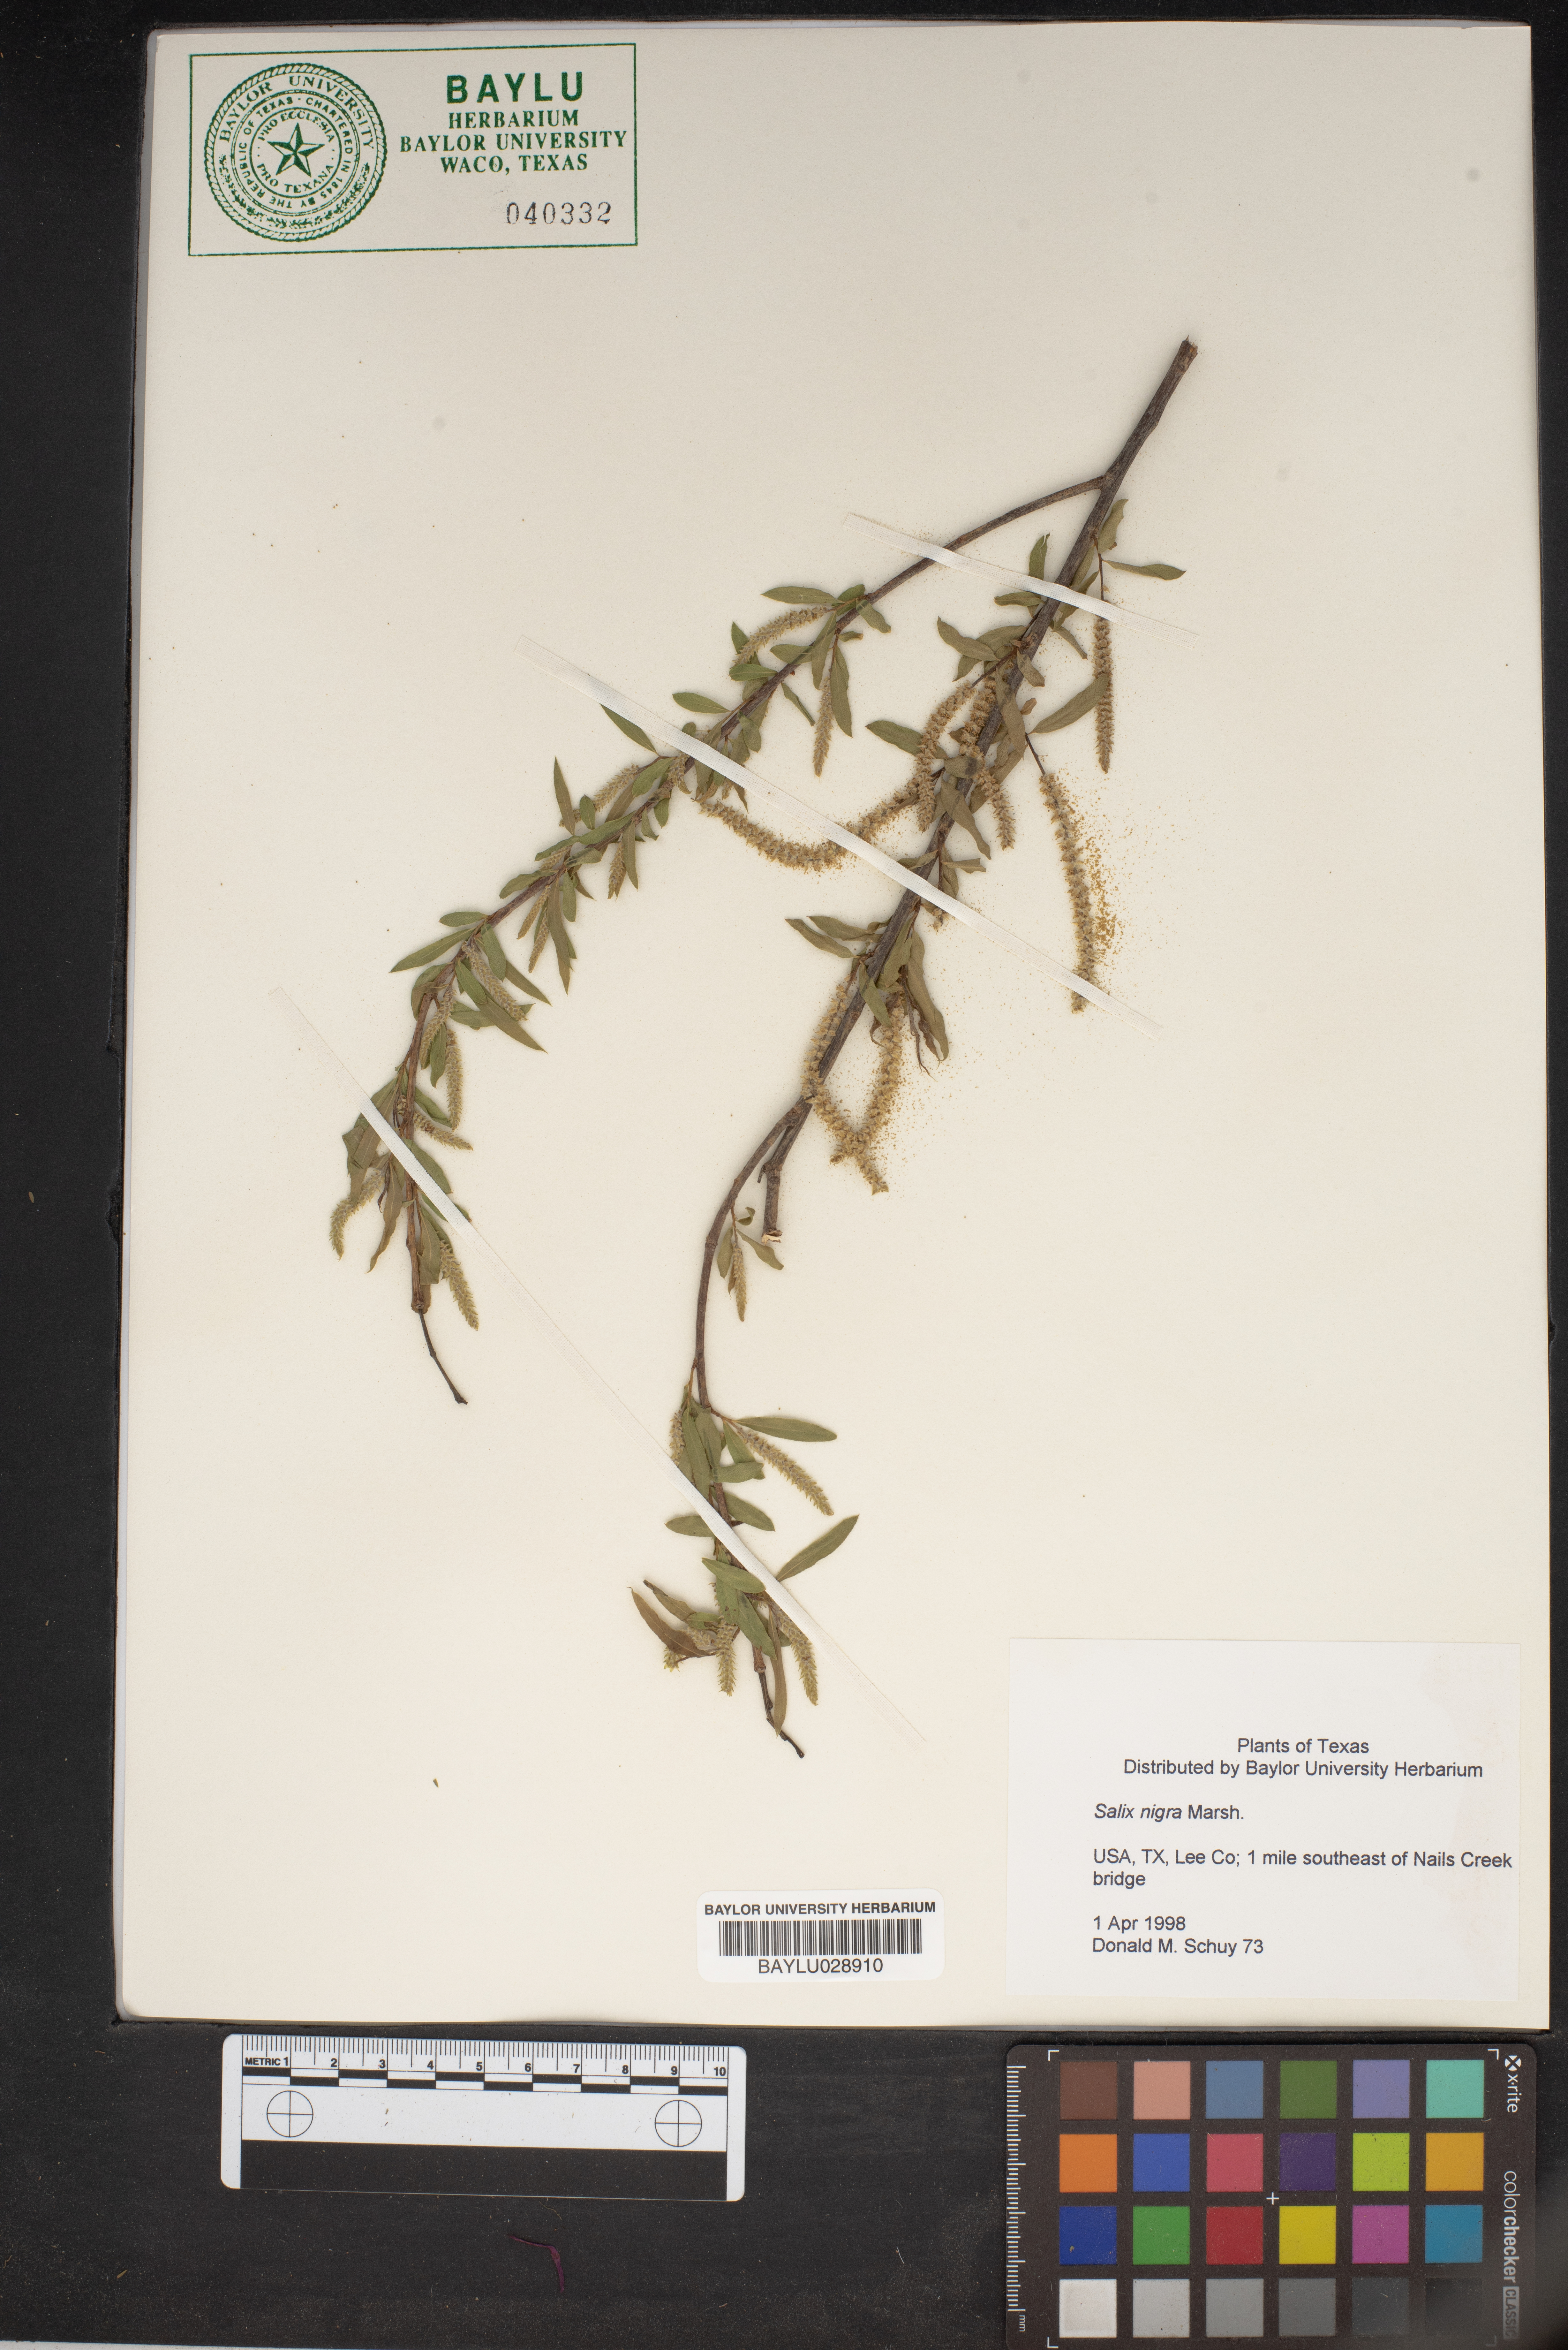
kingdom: Plantae
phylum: Tracheophyta
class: Magnoliopsida
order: Malpighiales
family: Salicaceae
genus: Salix
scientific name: Salix nigra
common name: Black willow
